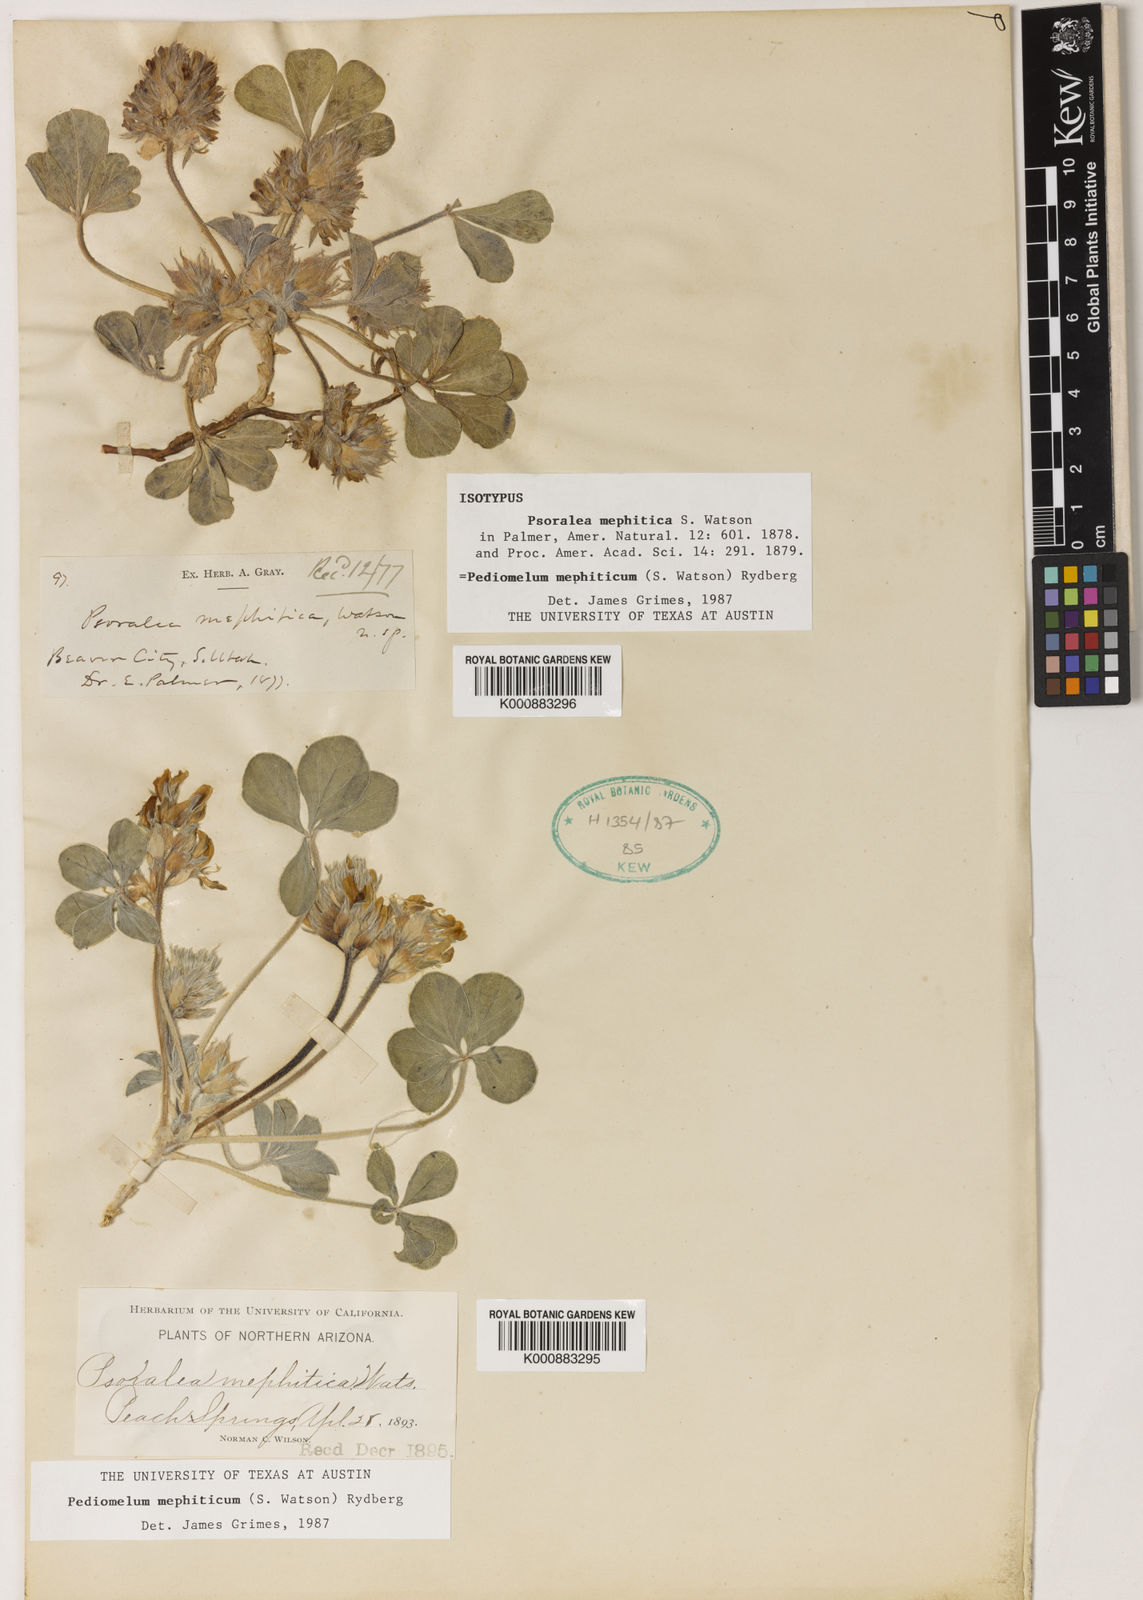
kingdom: Plantae
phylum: Tracheophyta
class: Magnoliopsida
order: Fabales
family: Fabaceae
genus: Pediomelum
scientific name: Pediomelum mephiticum
